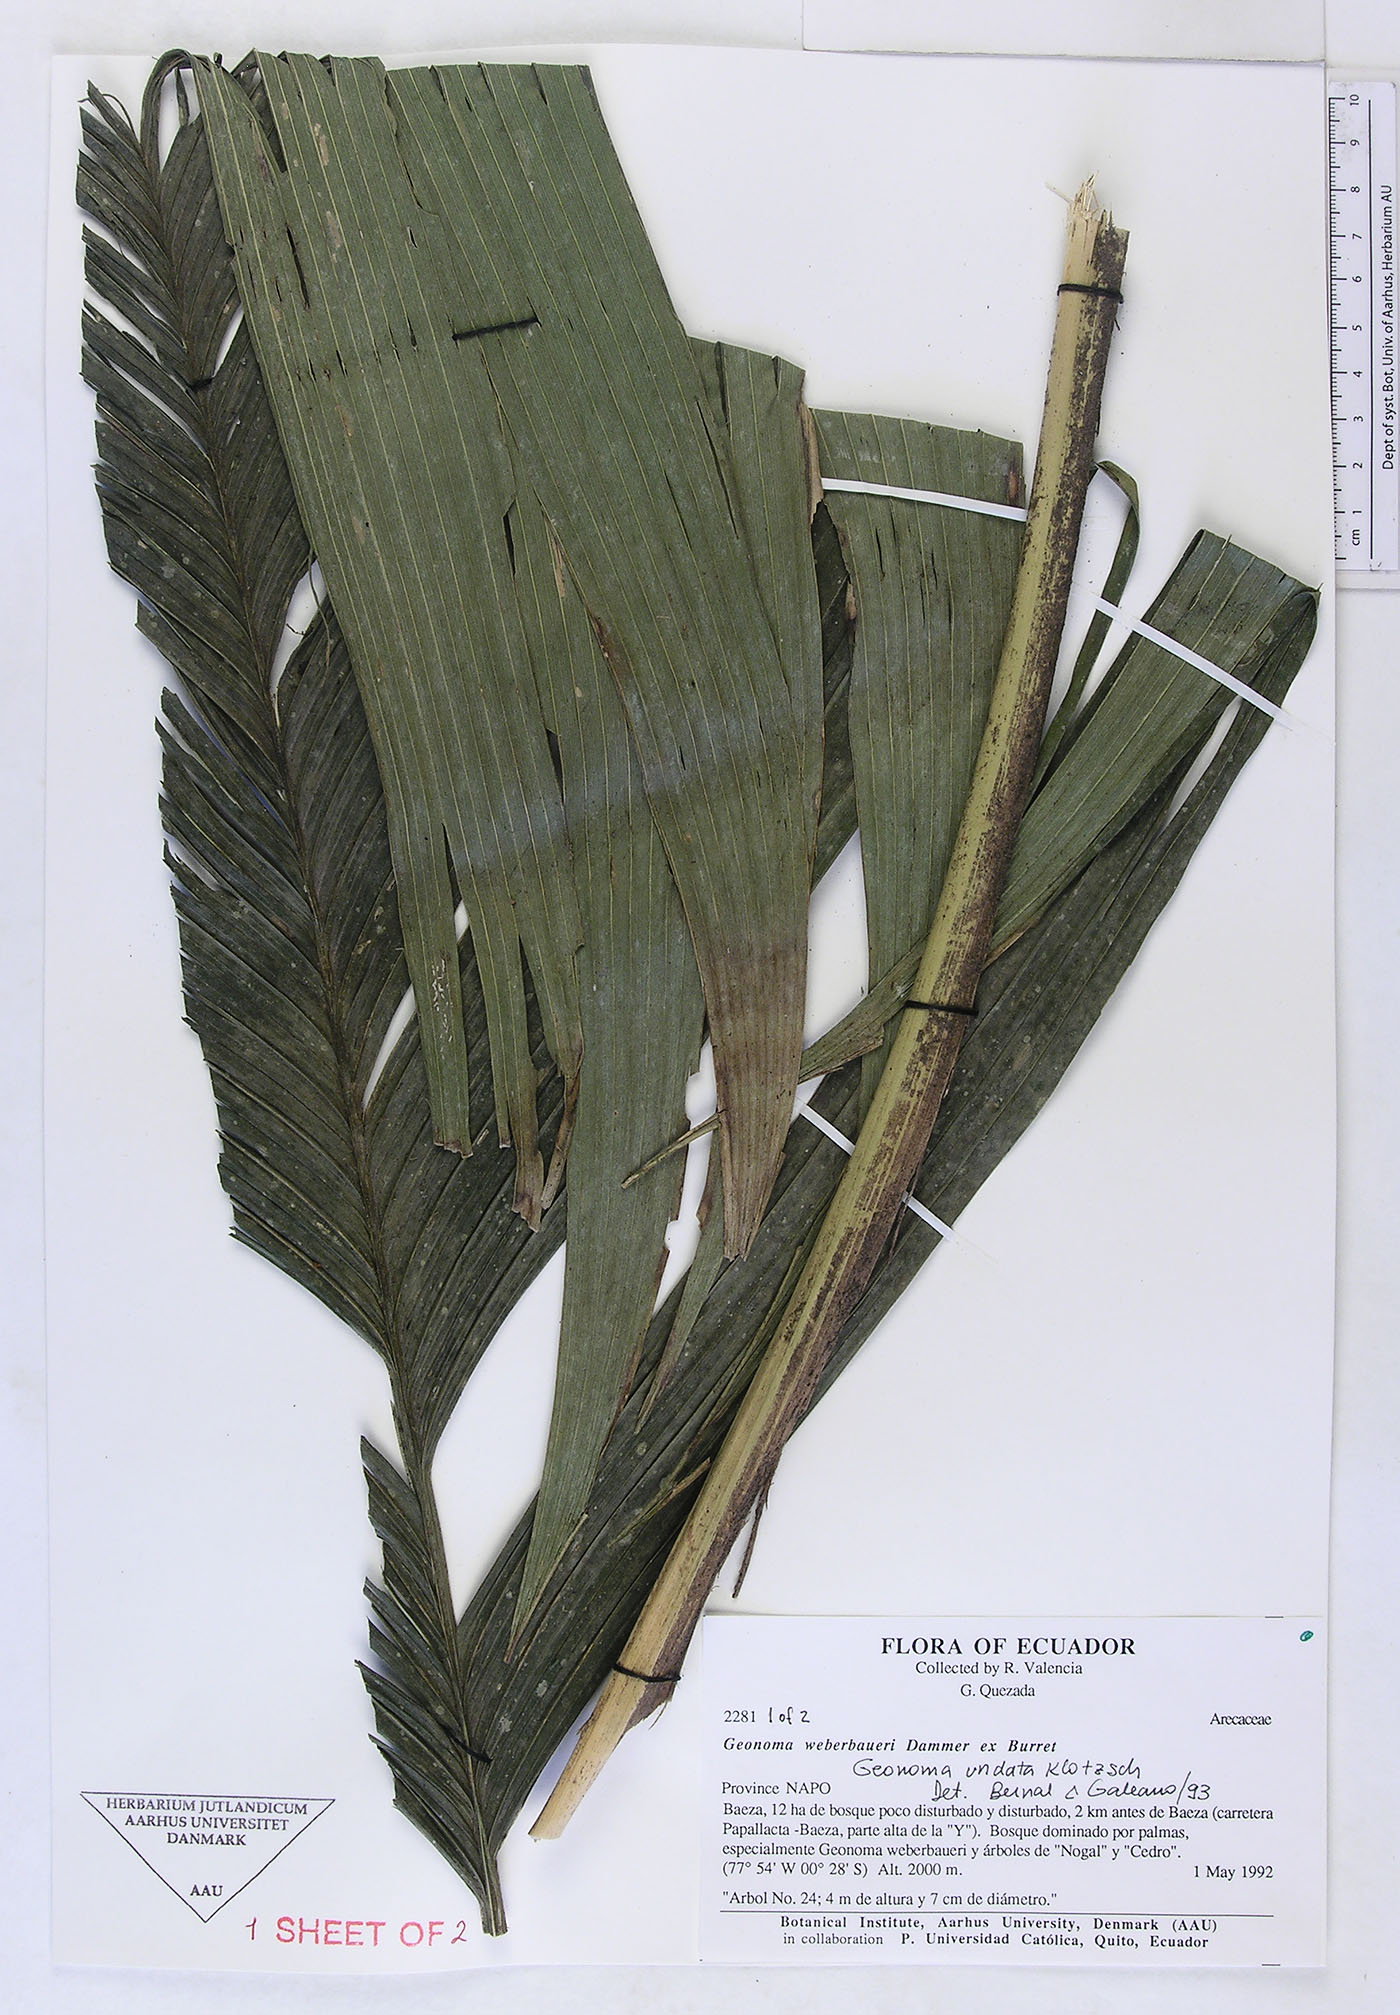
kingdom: Plantae
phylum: Tracheophyta
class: Liliopsida
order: Arecales
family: Arecaceae
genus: Geonoma
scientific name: Geonoma undata
